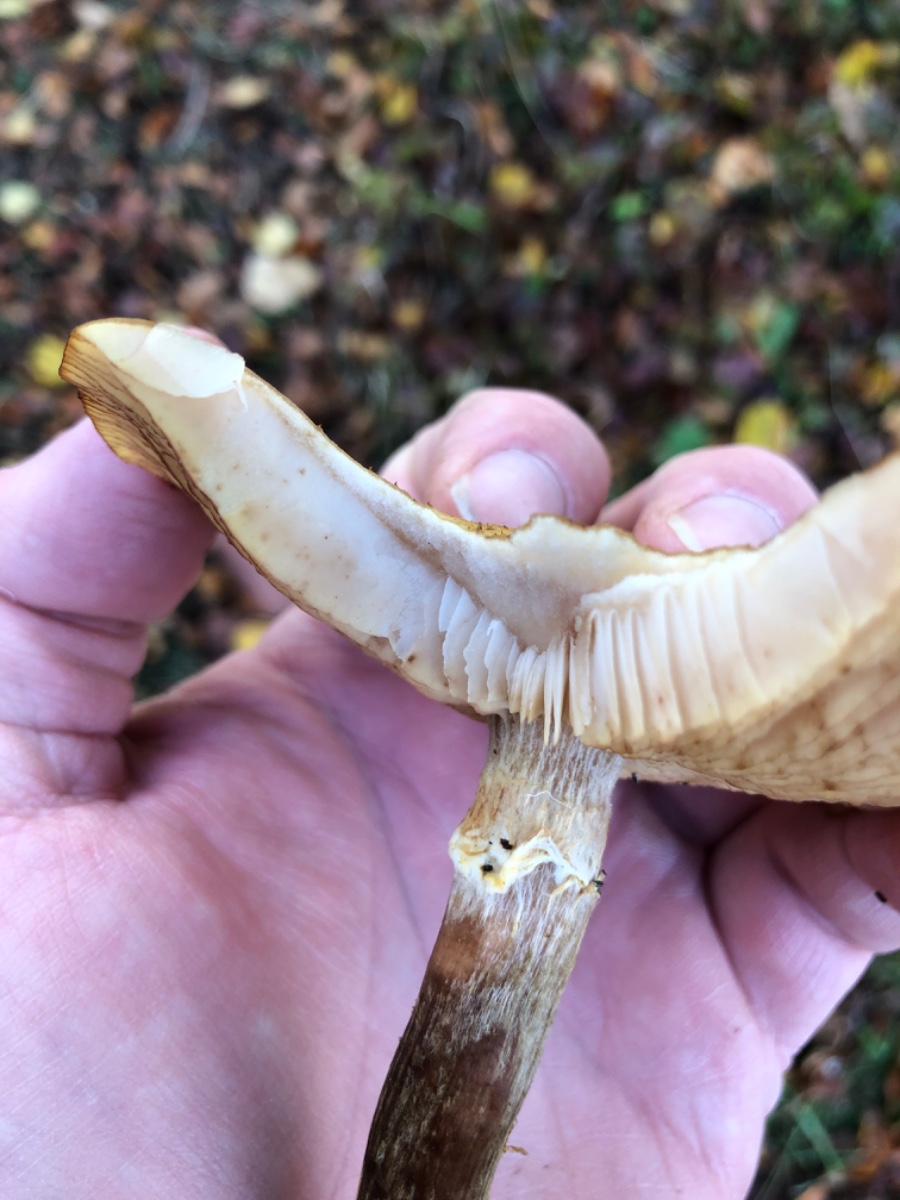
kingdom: Fungi
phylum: Basidiomycota
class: Agaricomycetes
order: Agaricales
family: Physalacriaceae
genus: Armillaria
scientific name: Armillaria lutea
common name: køllestokket honningsvamp
